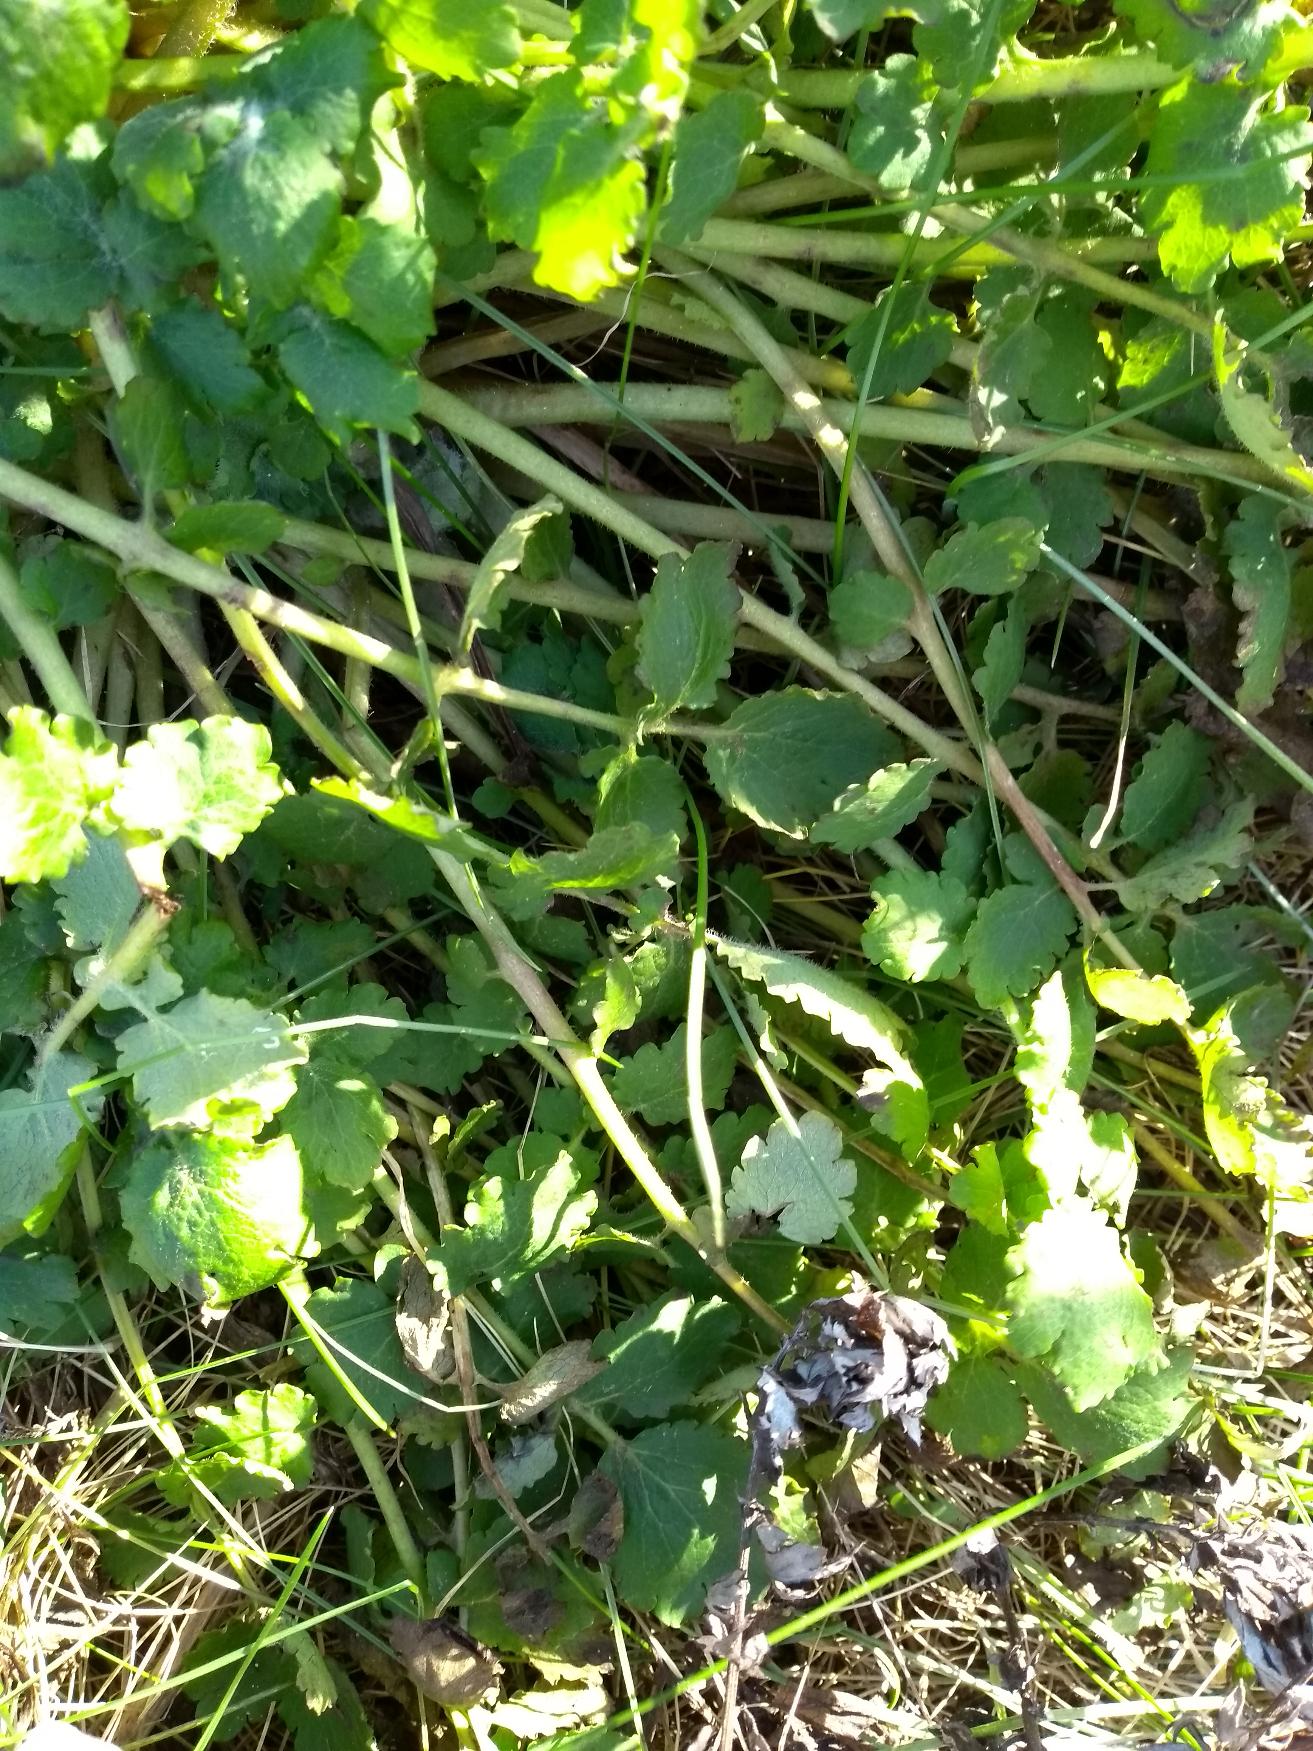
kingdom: Plantae
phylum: Tracheophyta
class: Magnoliopsida
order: Ranunculales
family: Papaveraceae
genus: Chelidonium
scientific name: Chelidonium majus
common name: Svaleurt
